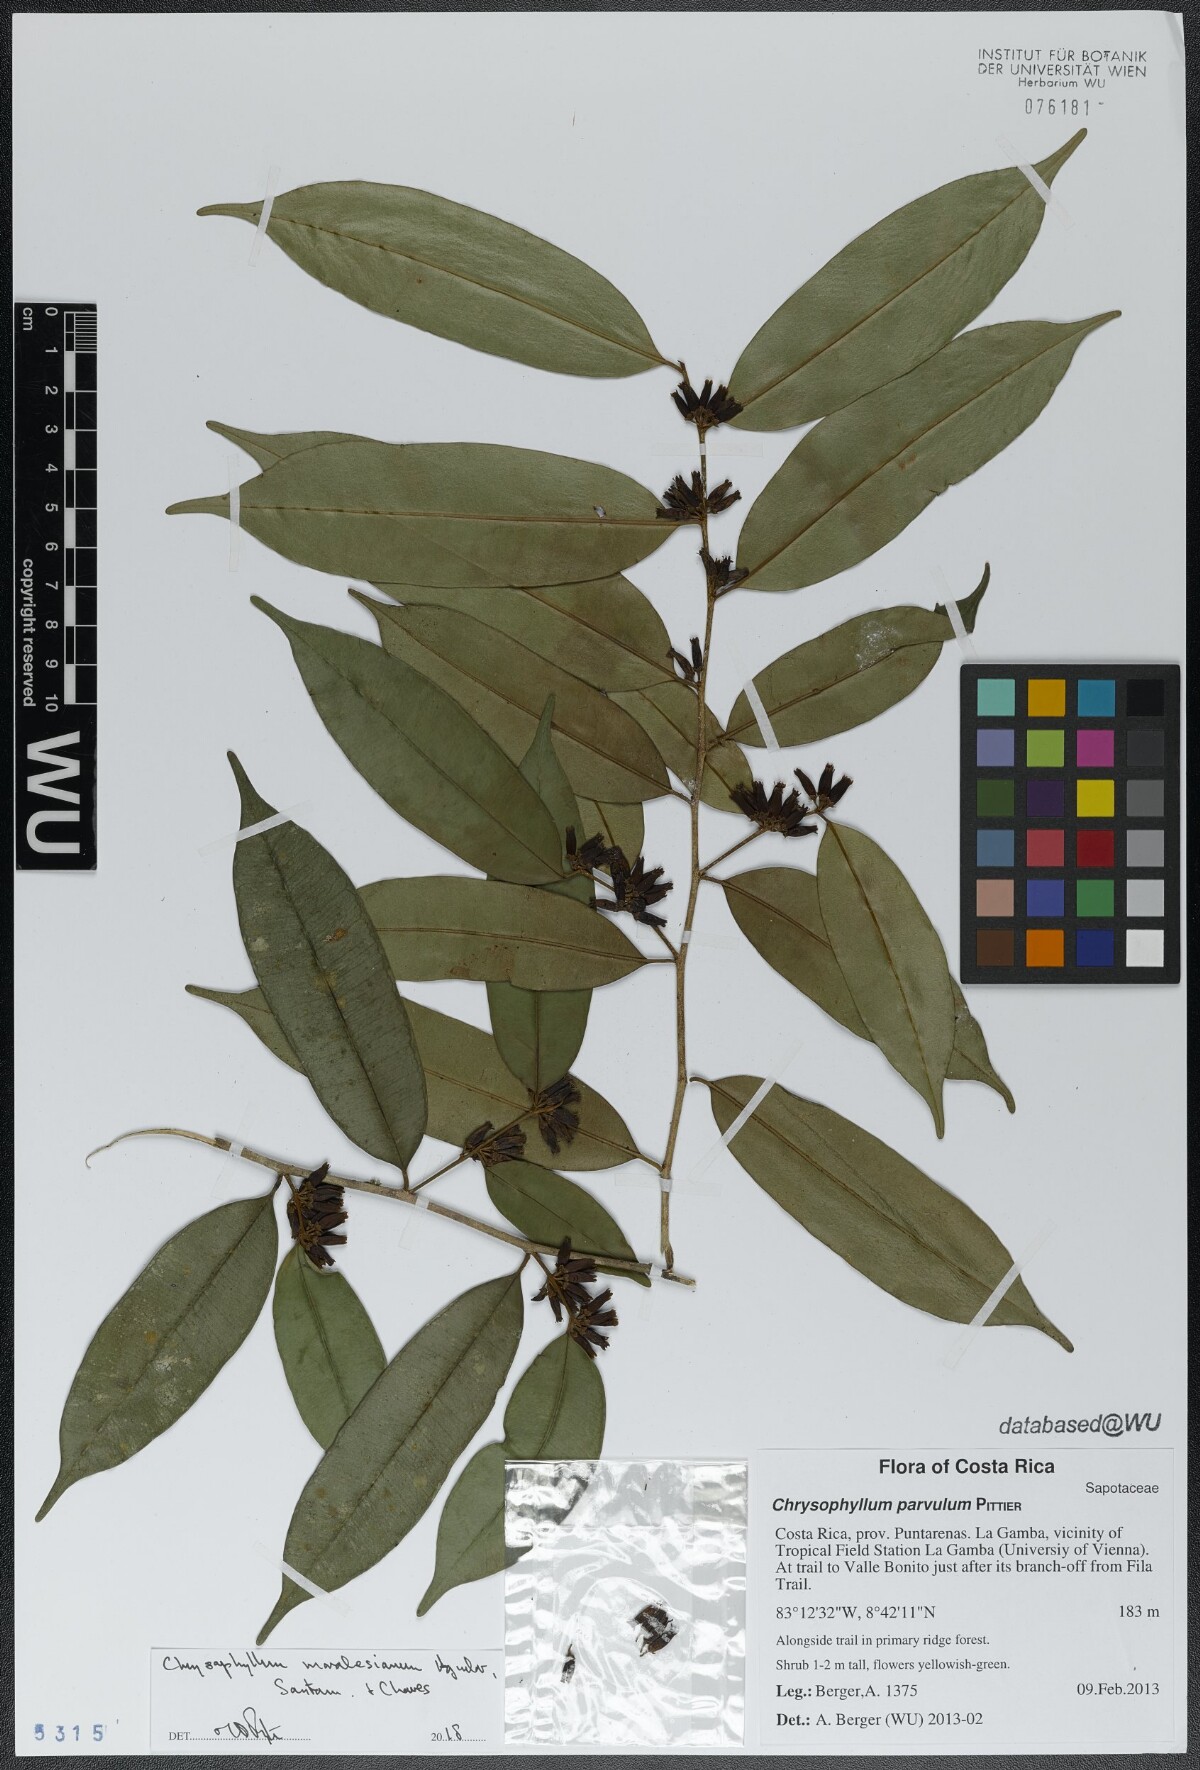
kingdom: Plantae
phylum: Tracheophyta
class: Magnoliopsida
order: Ericales
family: Sapotaceae
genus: Chrysophyllum
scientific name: Chrysophyllum moralesianum
